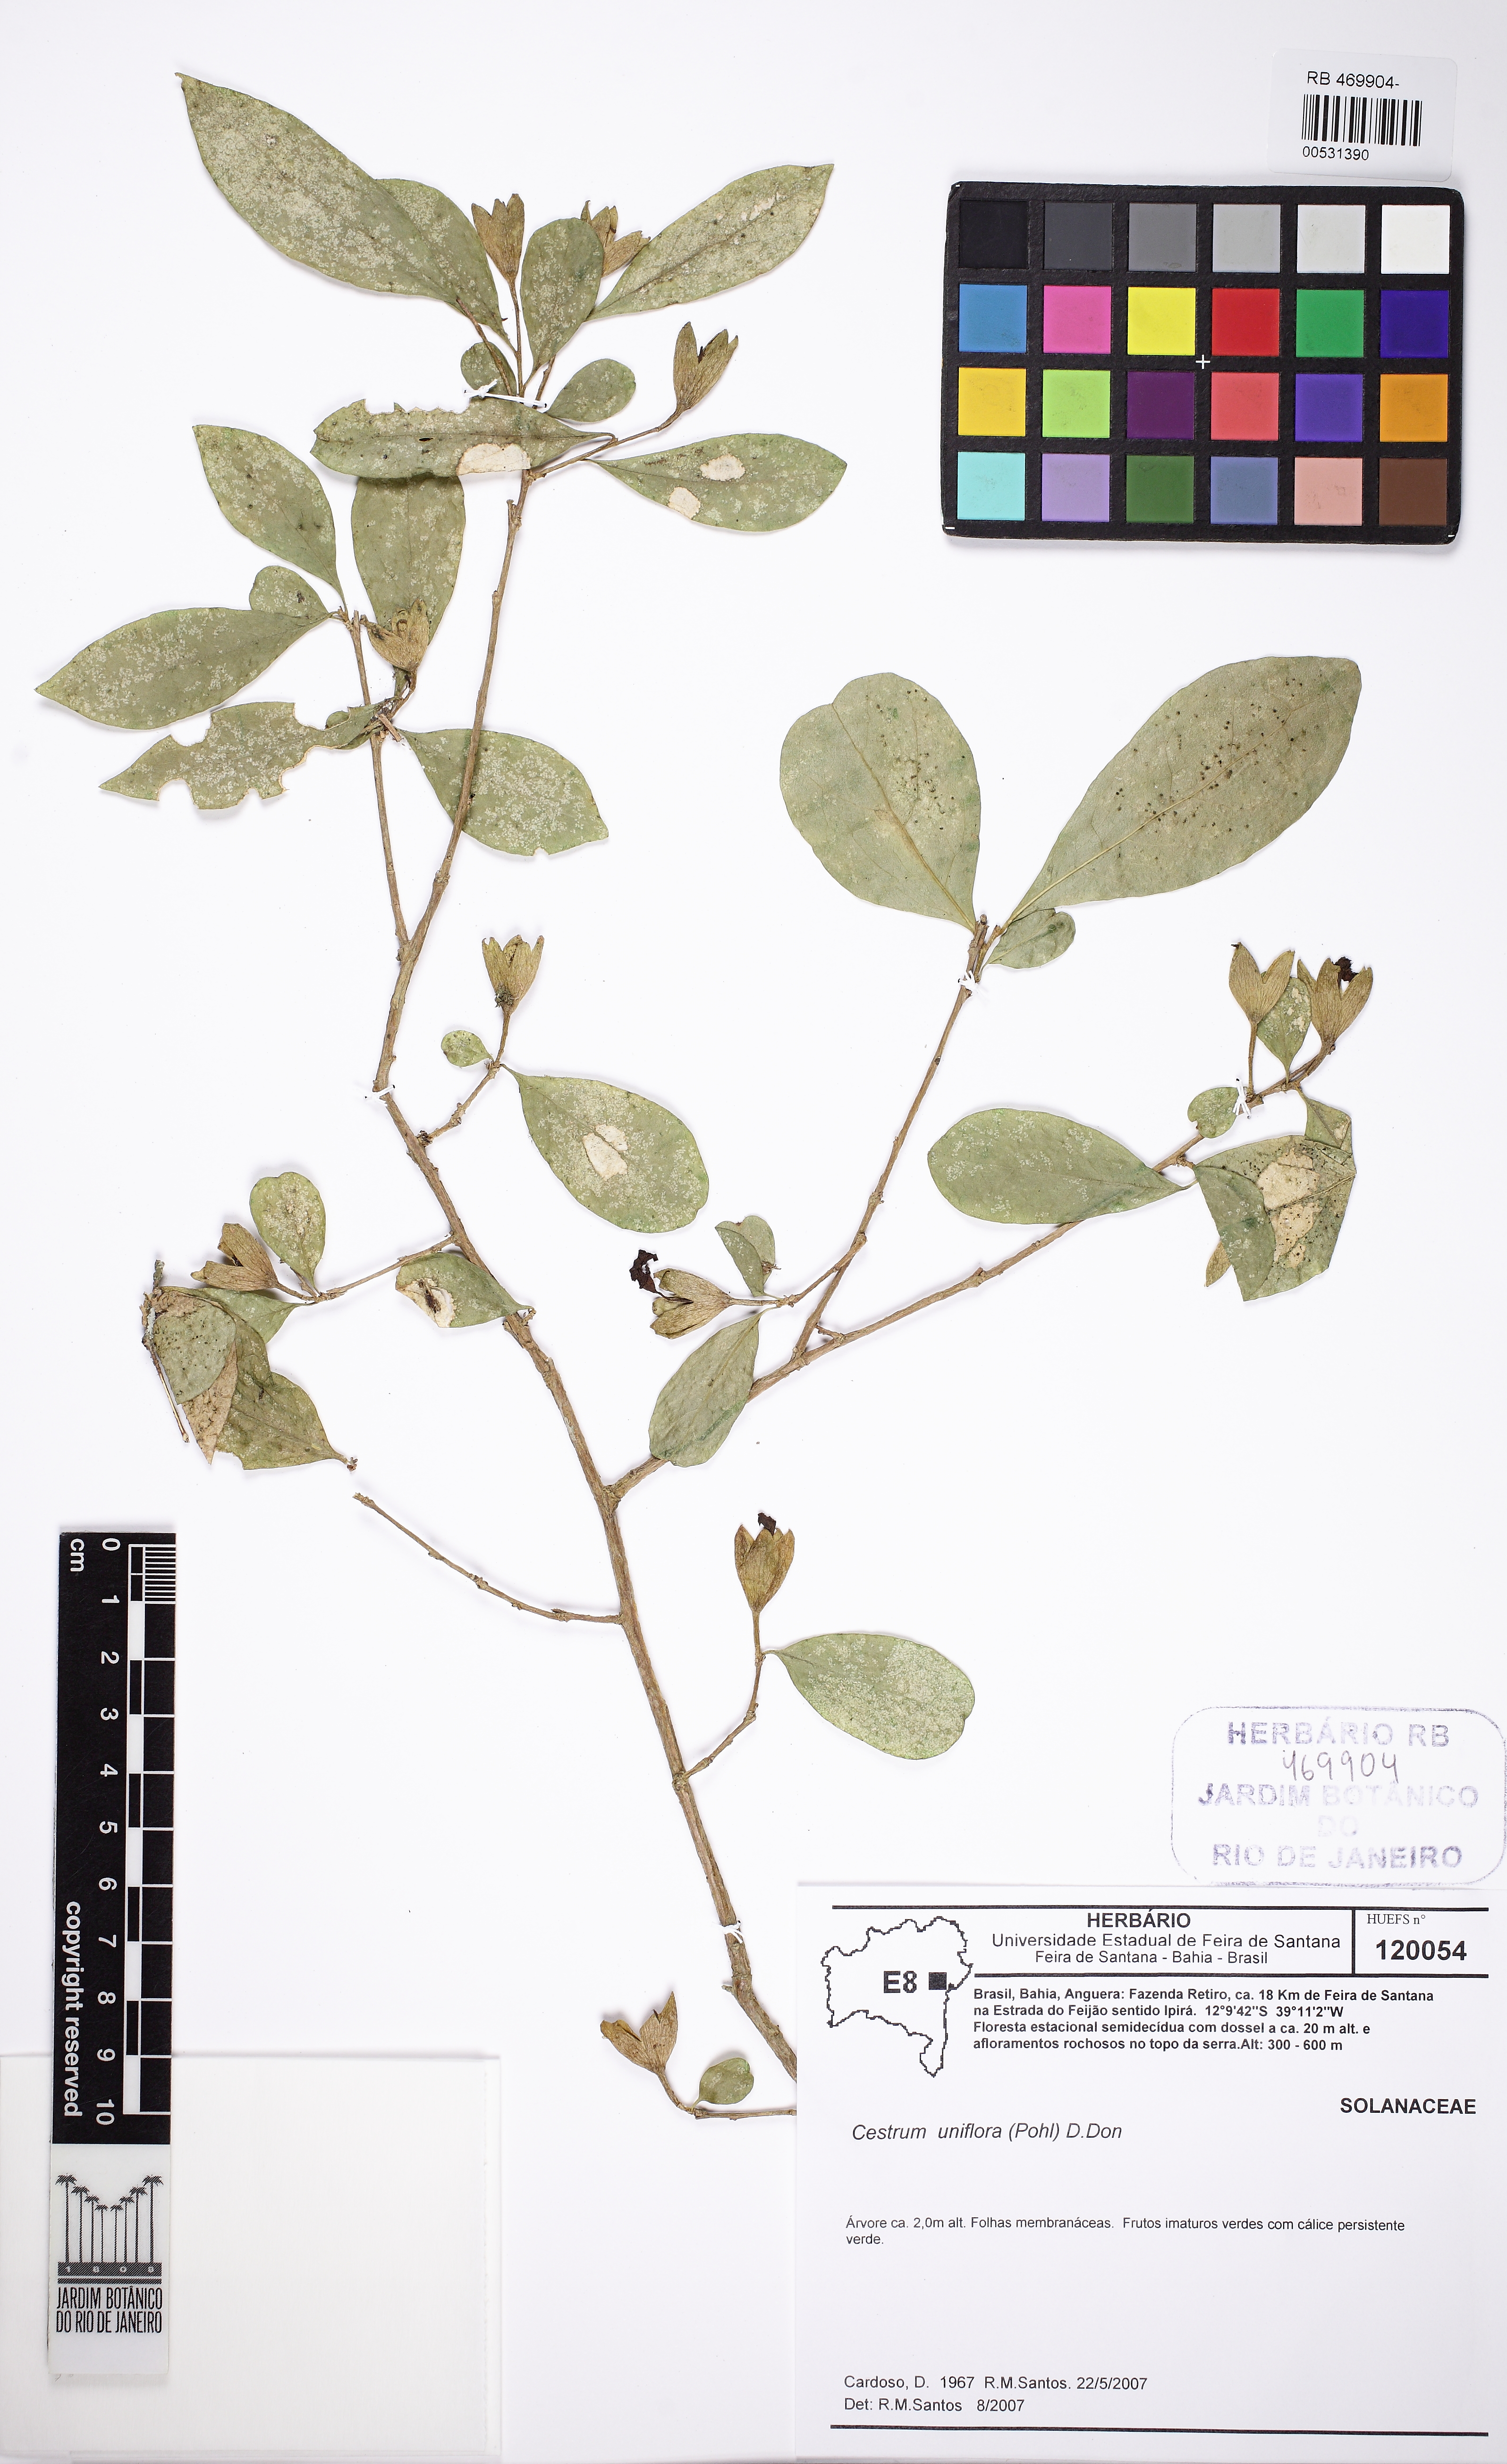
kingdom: Plantae
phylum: Tracheophyta
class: Magnoliopsida
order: Solanales
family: Solanaceae
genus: Cestrum
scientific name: Cestrum
